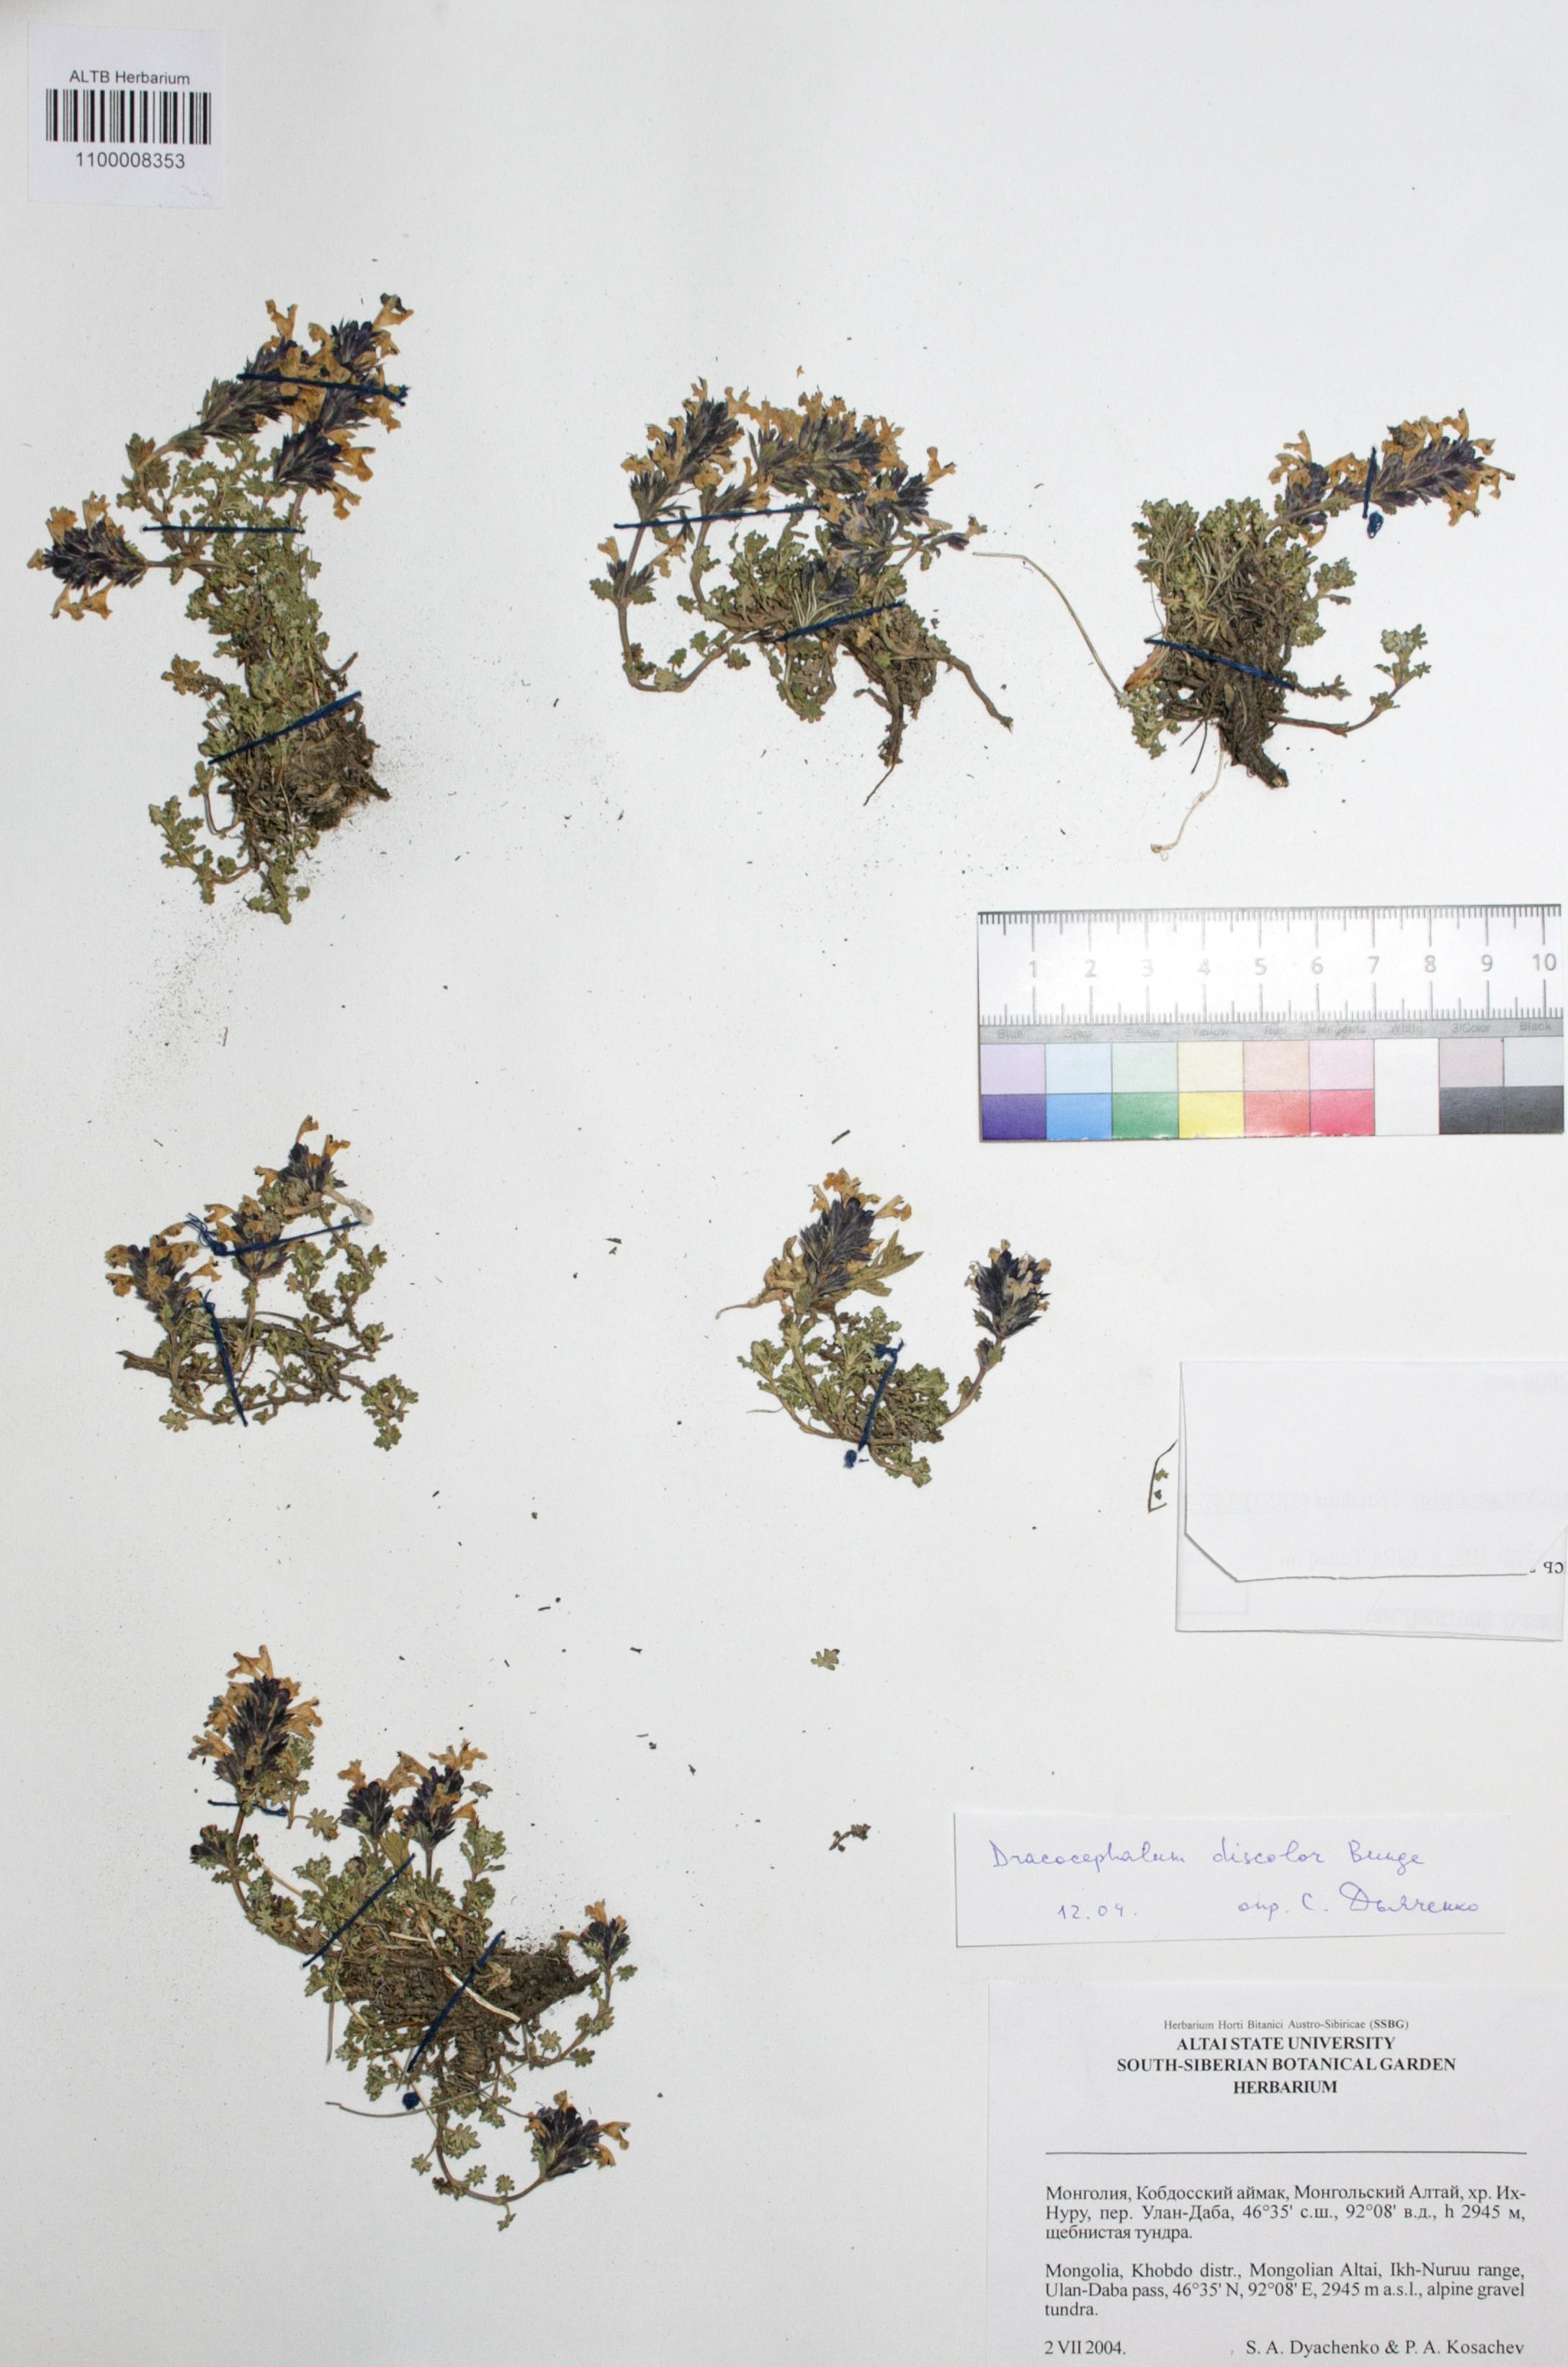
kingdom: Plantae
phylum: Tracheophyta
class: Magnoliopsida
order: Lamiales
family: Lamiaceae
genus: Dracocephalum
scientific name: Dracocephalum discolor
